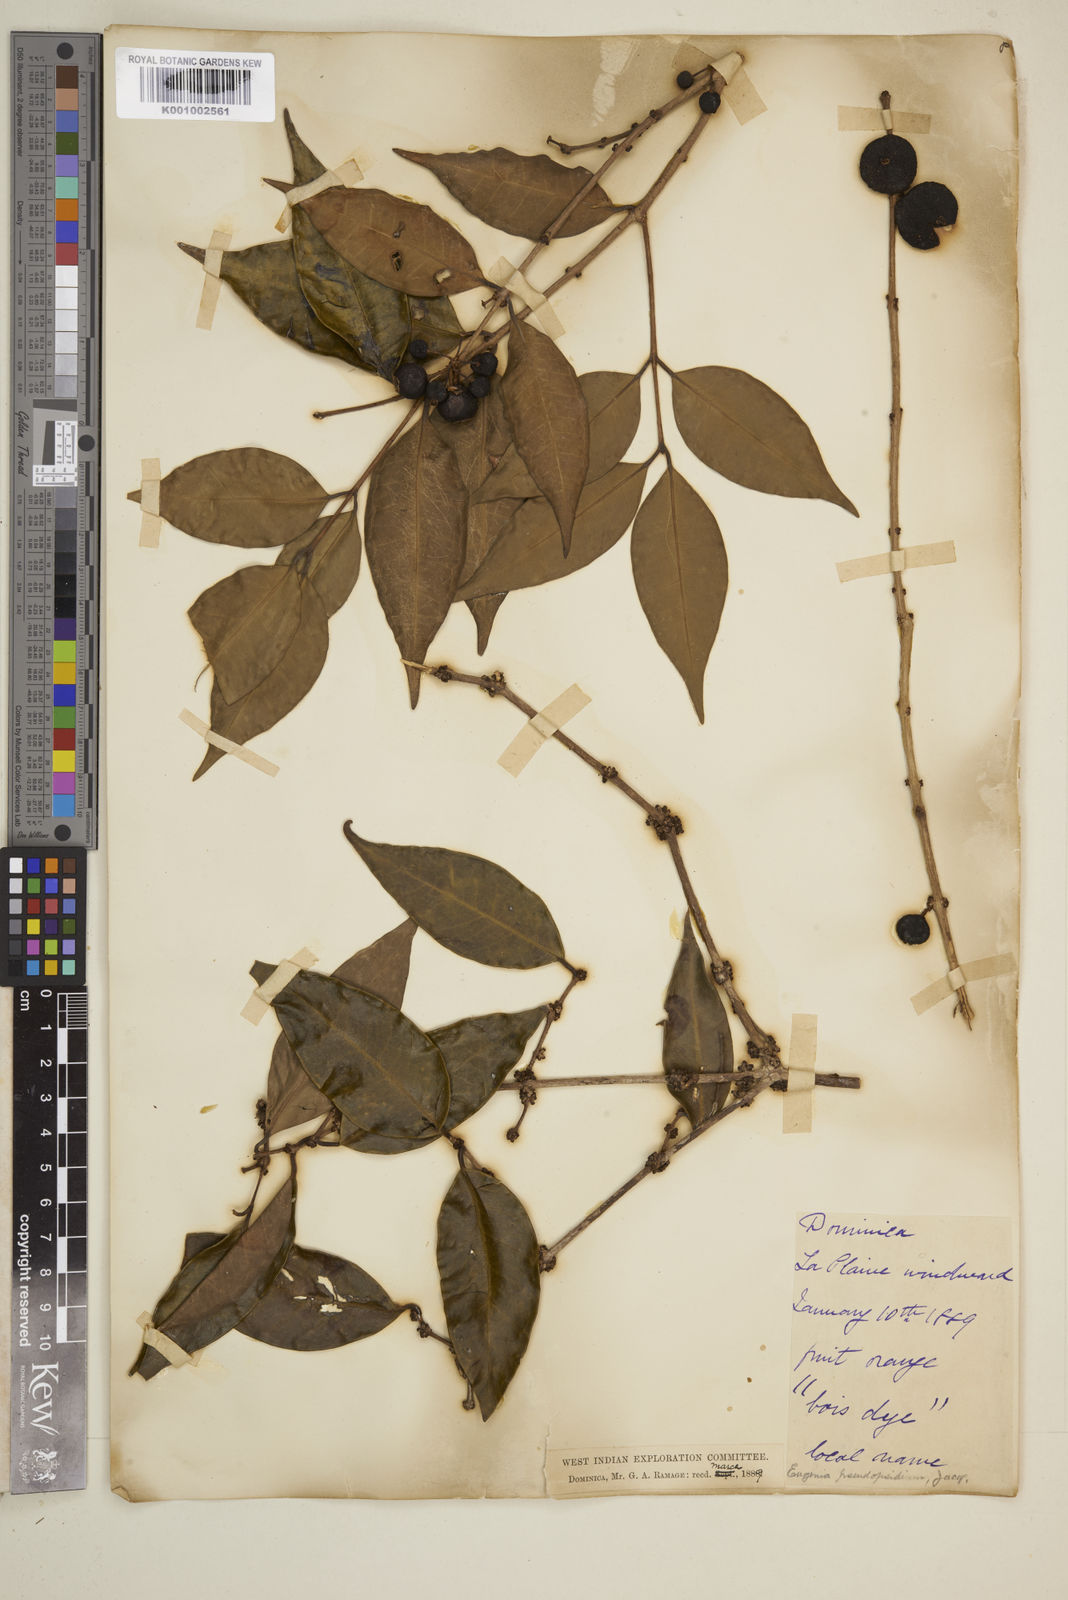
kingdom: Plantae
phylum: Tracheophyta
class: Magnoliopsida
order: Myrtales
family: Myrtaceae
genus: Eugenia
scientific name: Eugenia lambertiana
